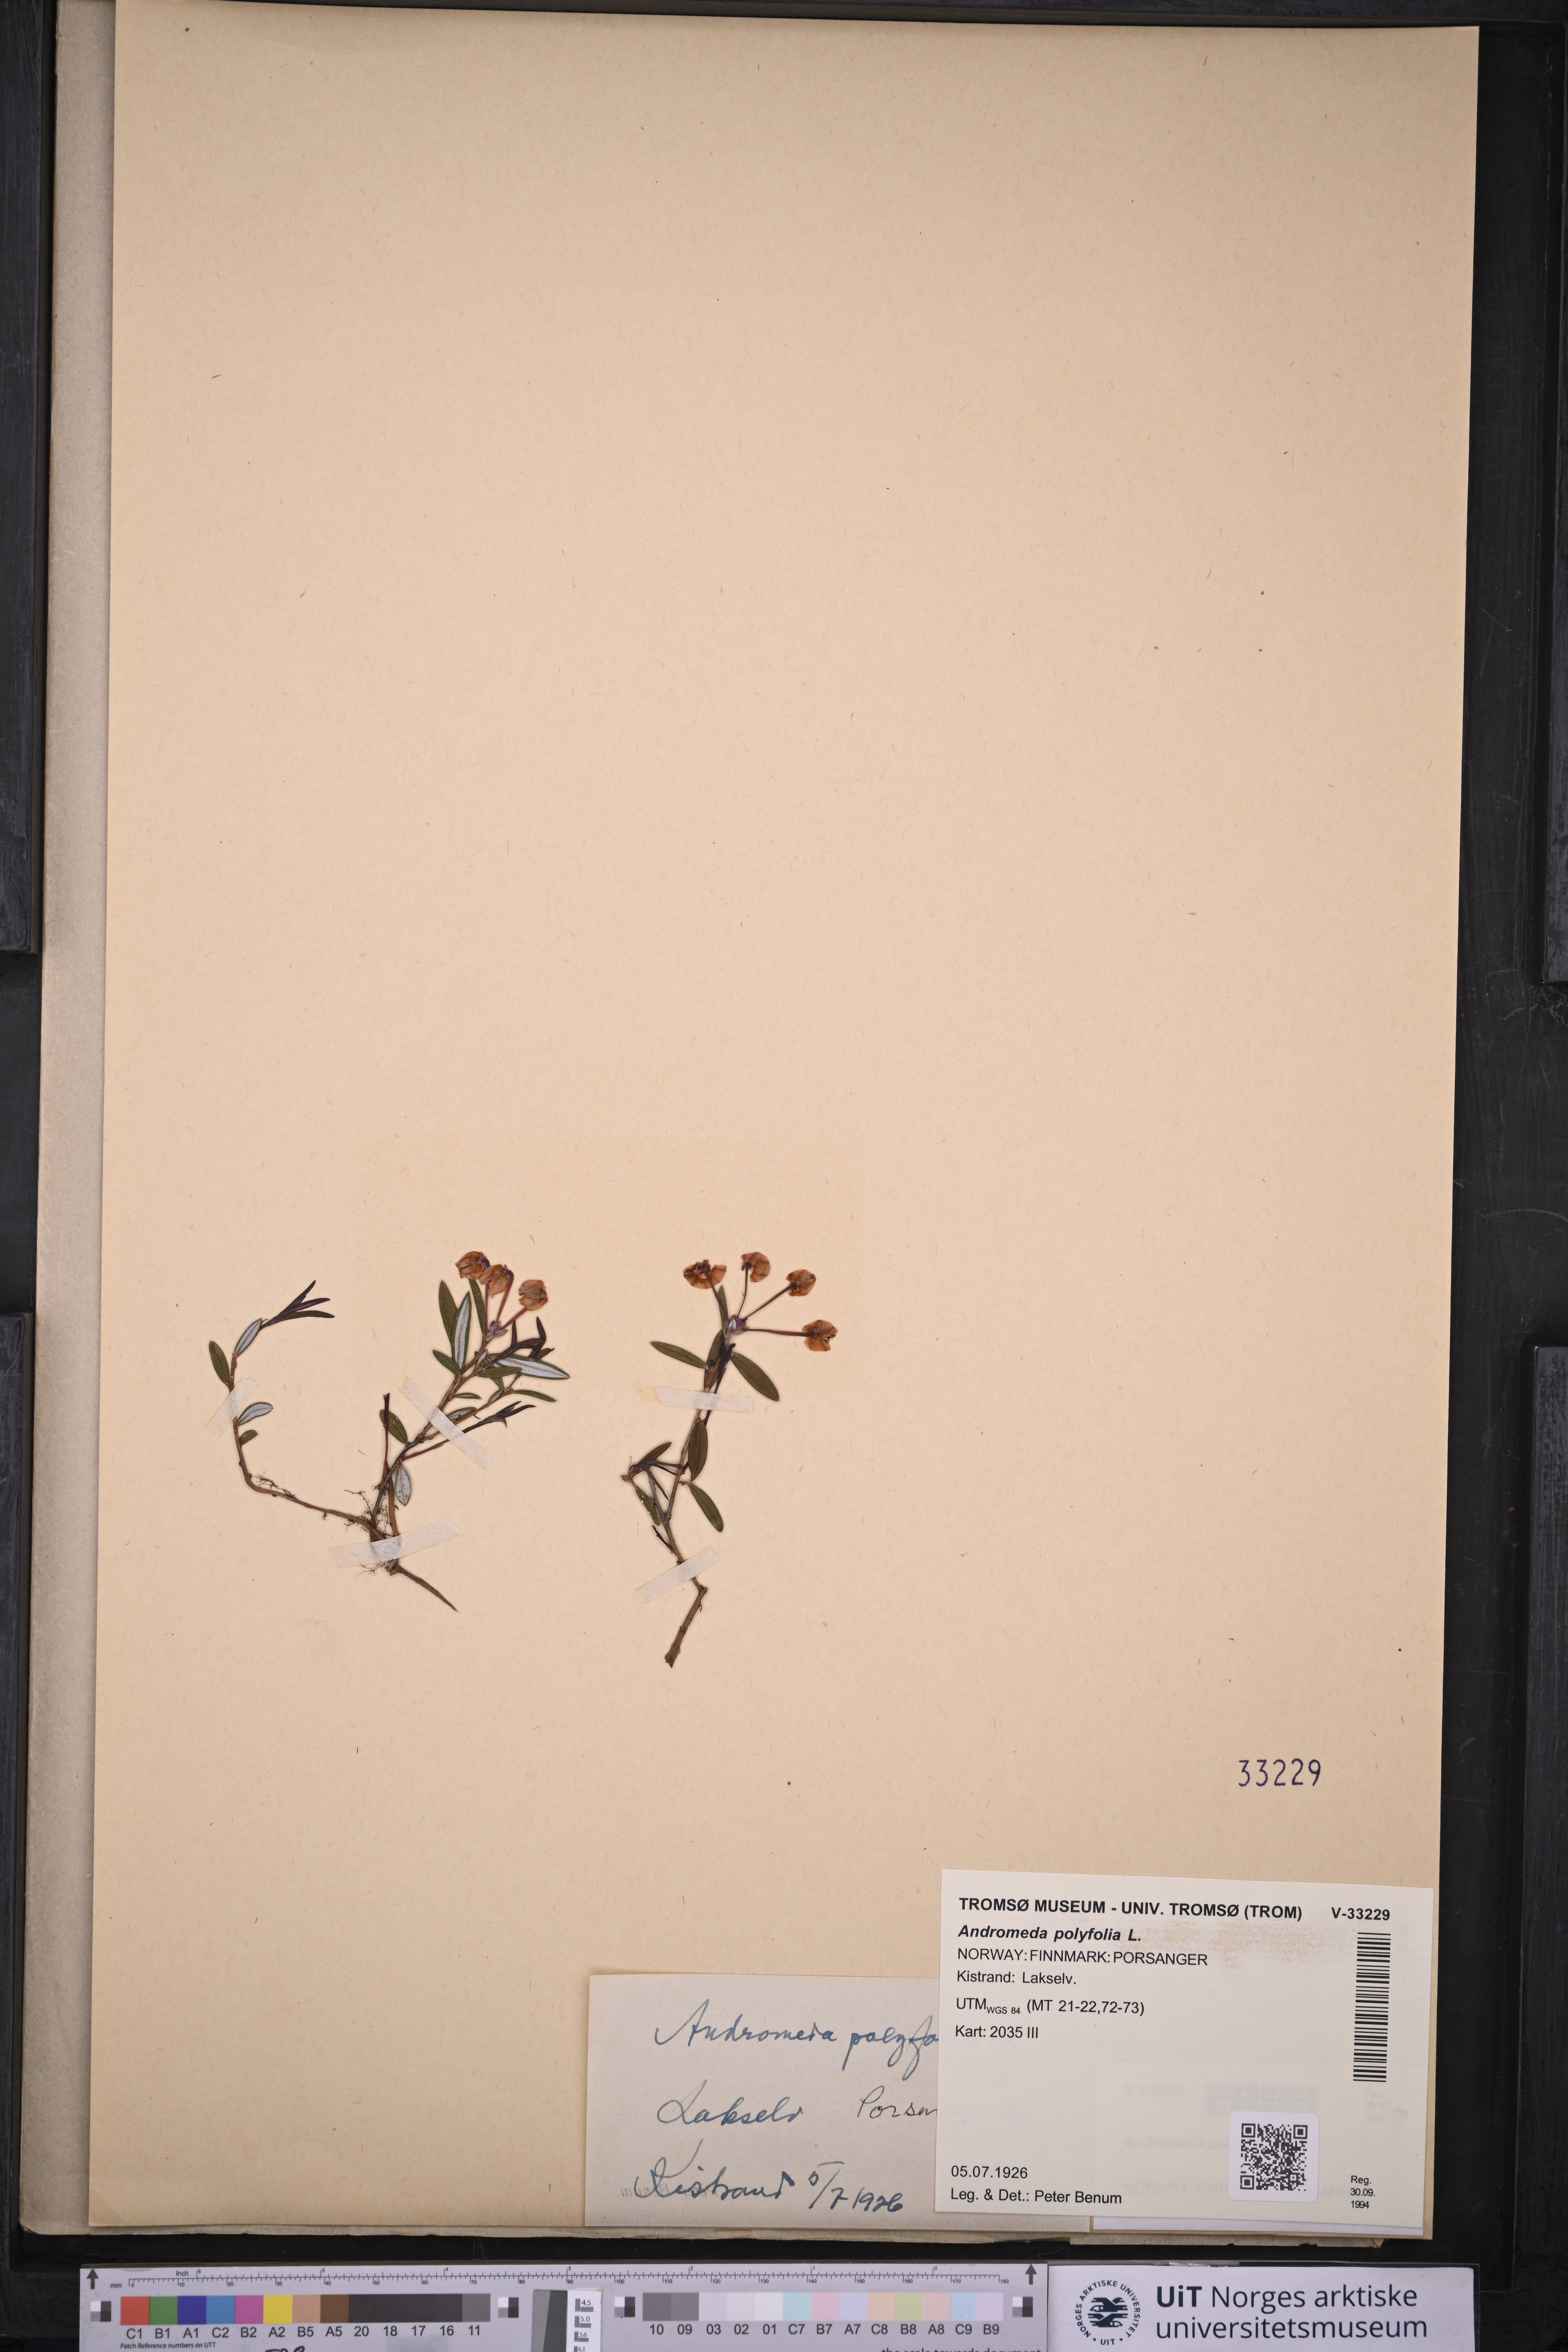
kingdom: Plantae
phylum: Tracheophyta
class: Magnoliopsida
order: Ericales
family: Ericaceae
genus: Andromeda
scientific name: Andromeda polifolia
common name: Bog-rosemary
